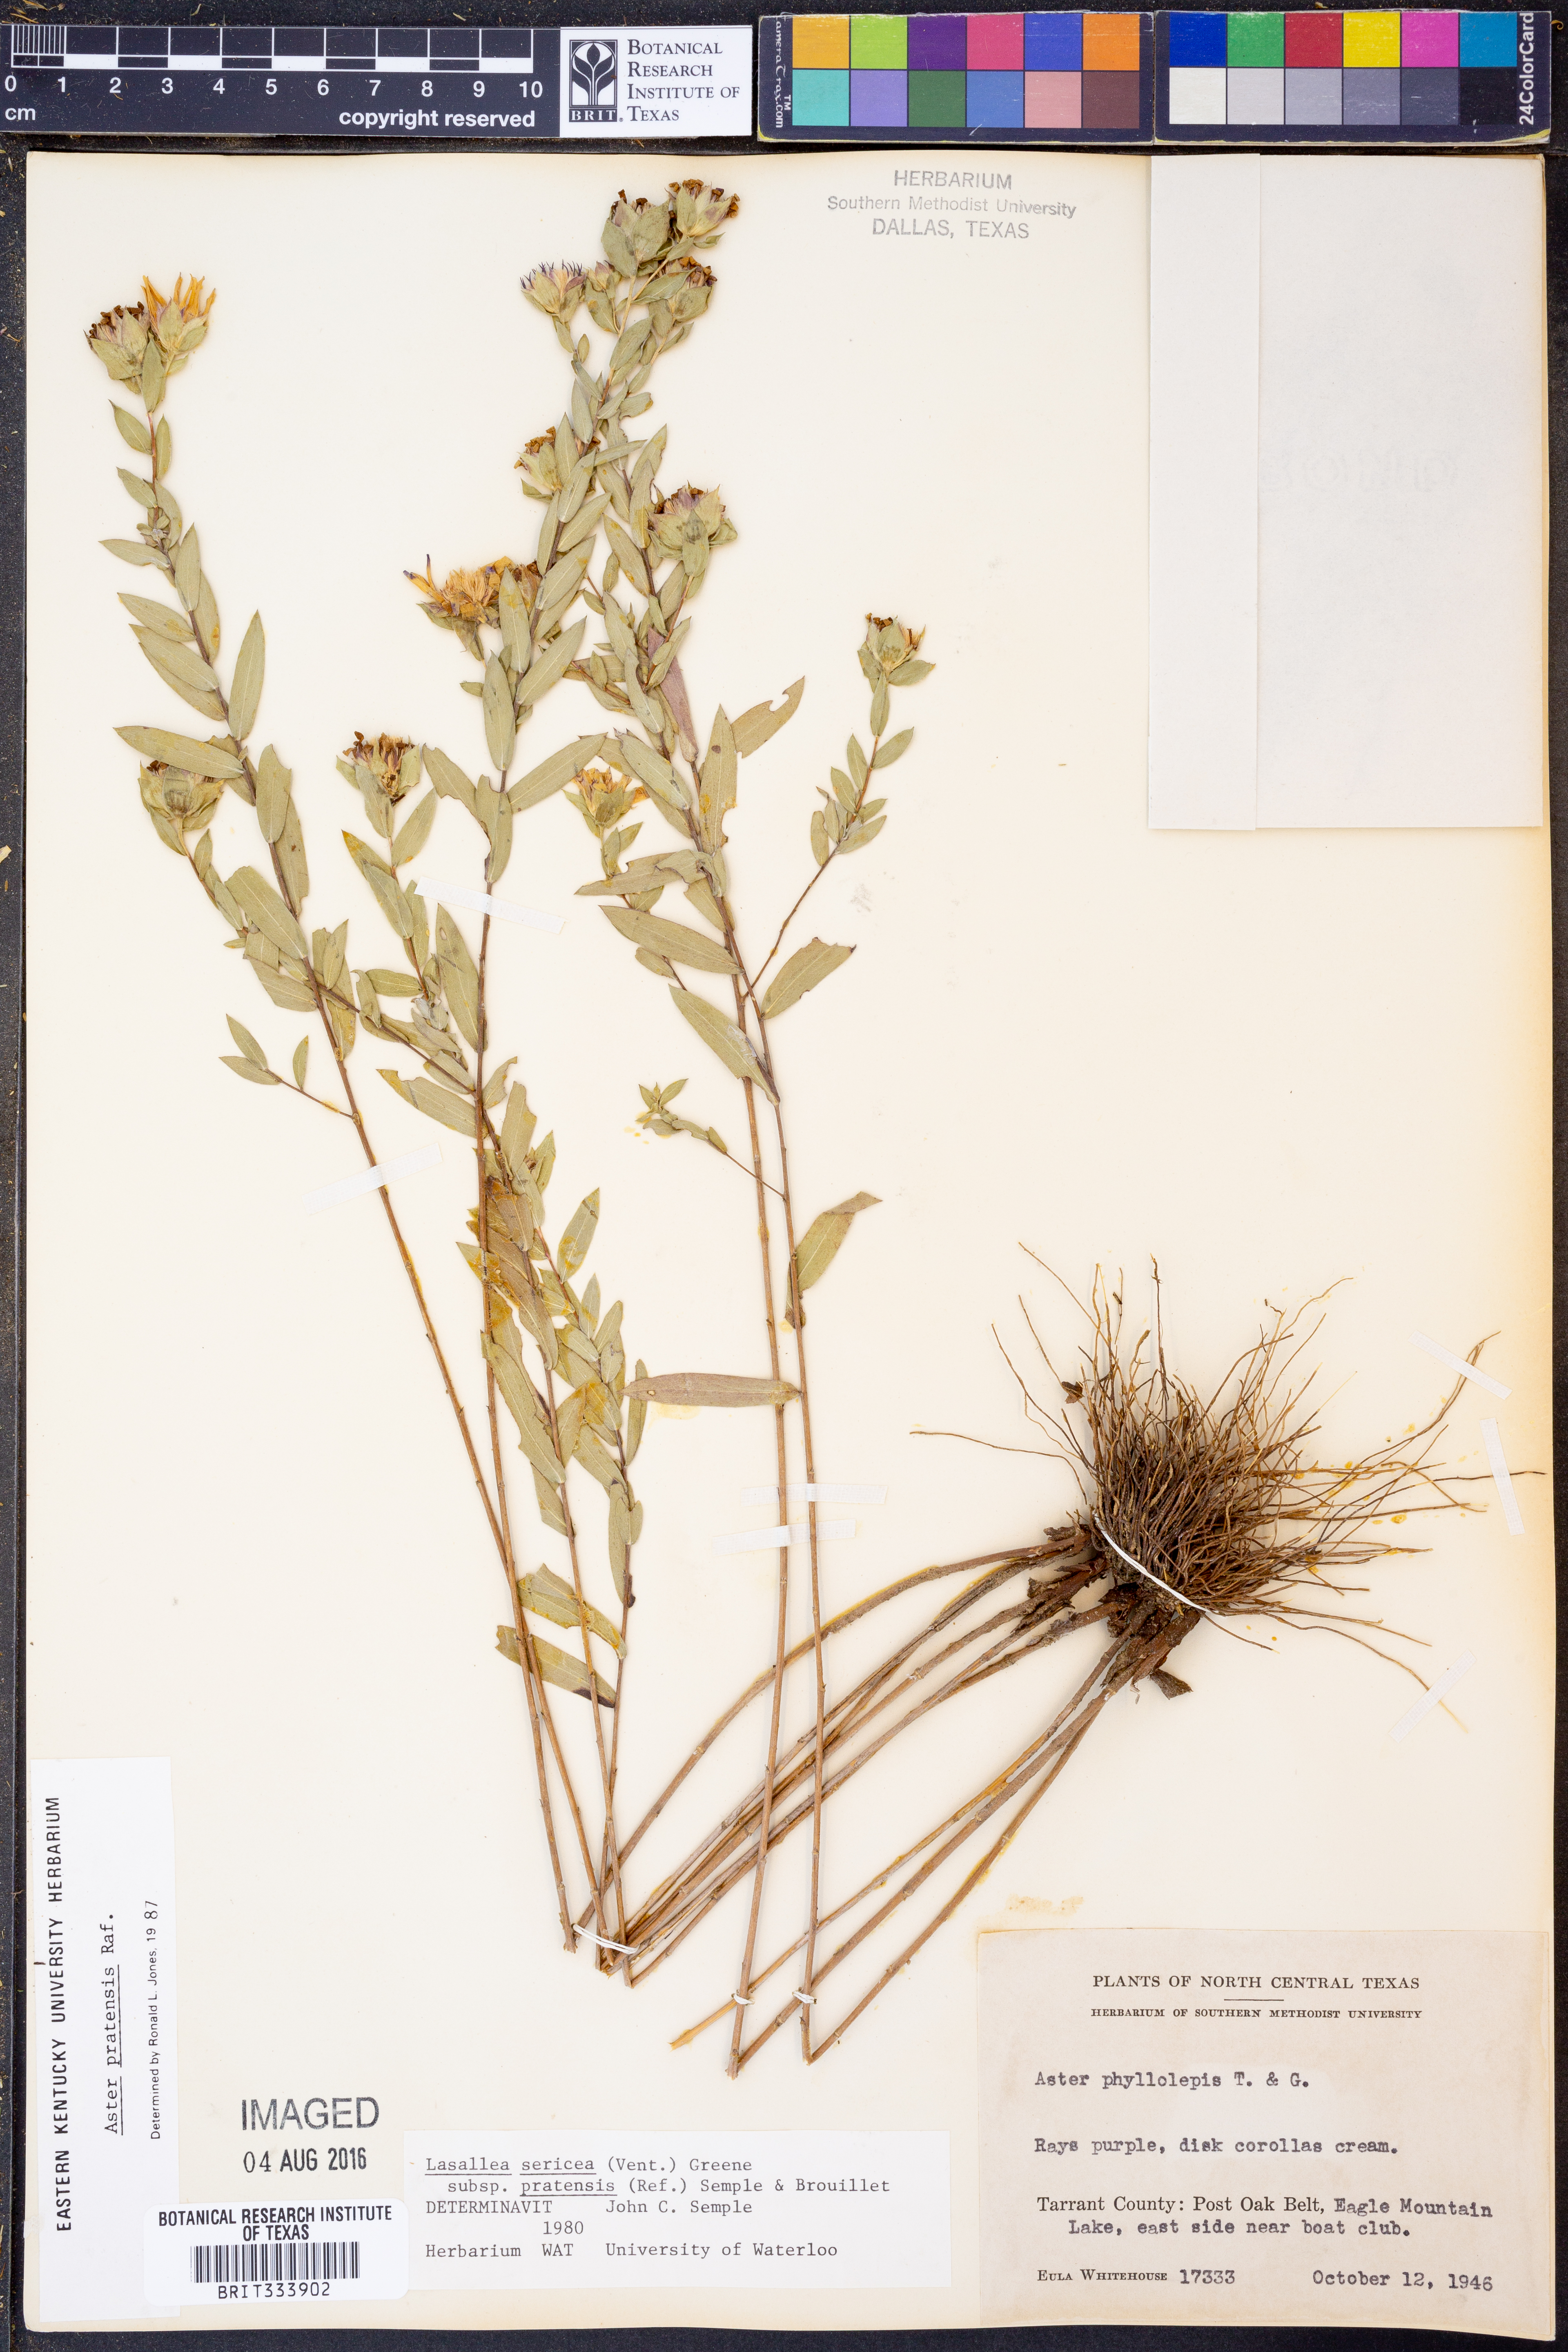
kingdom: Plantae
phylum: Tracheophyta
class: Magnoliopsida
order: Asterales
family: Asteraceae
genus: Symphyotrichum
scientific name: Symphyotrichum pratense
